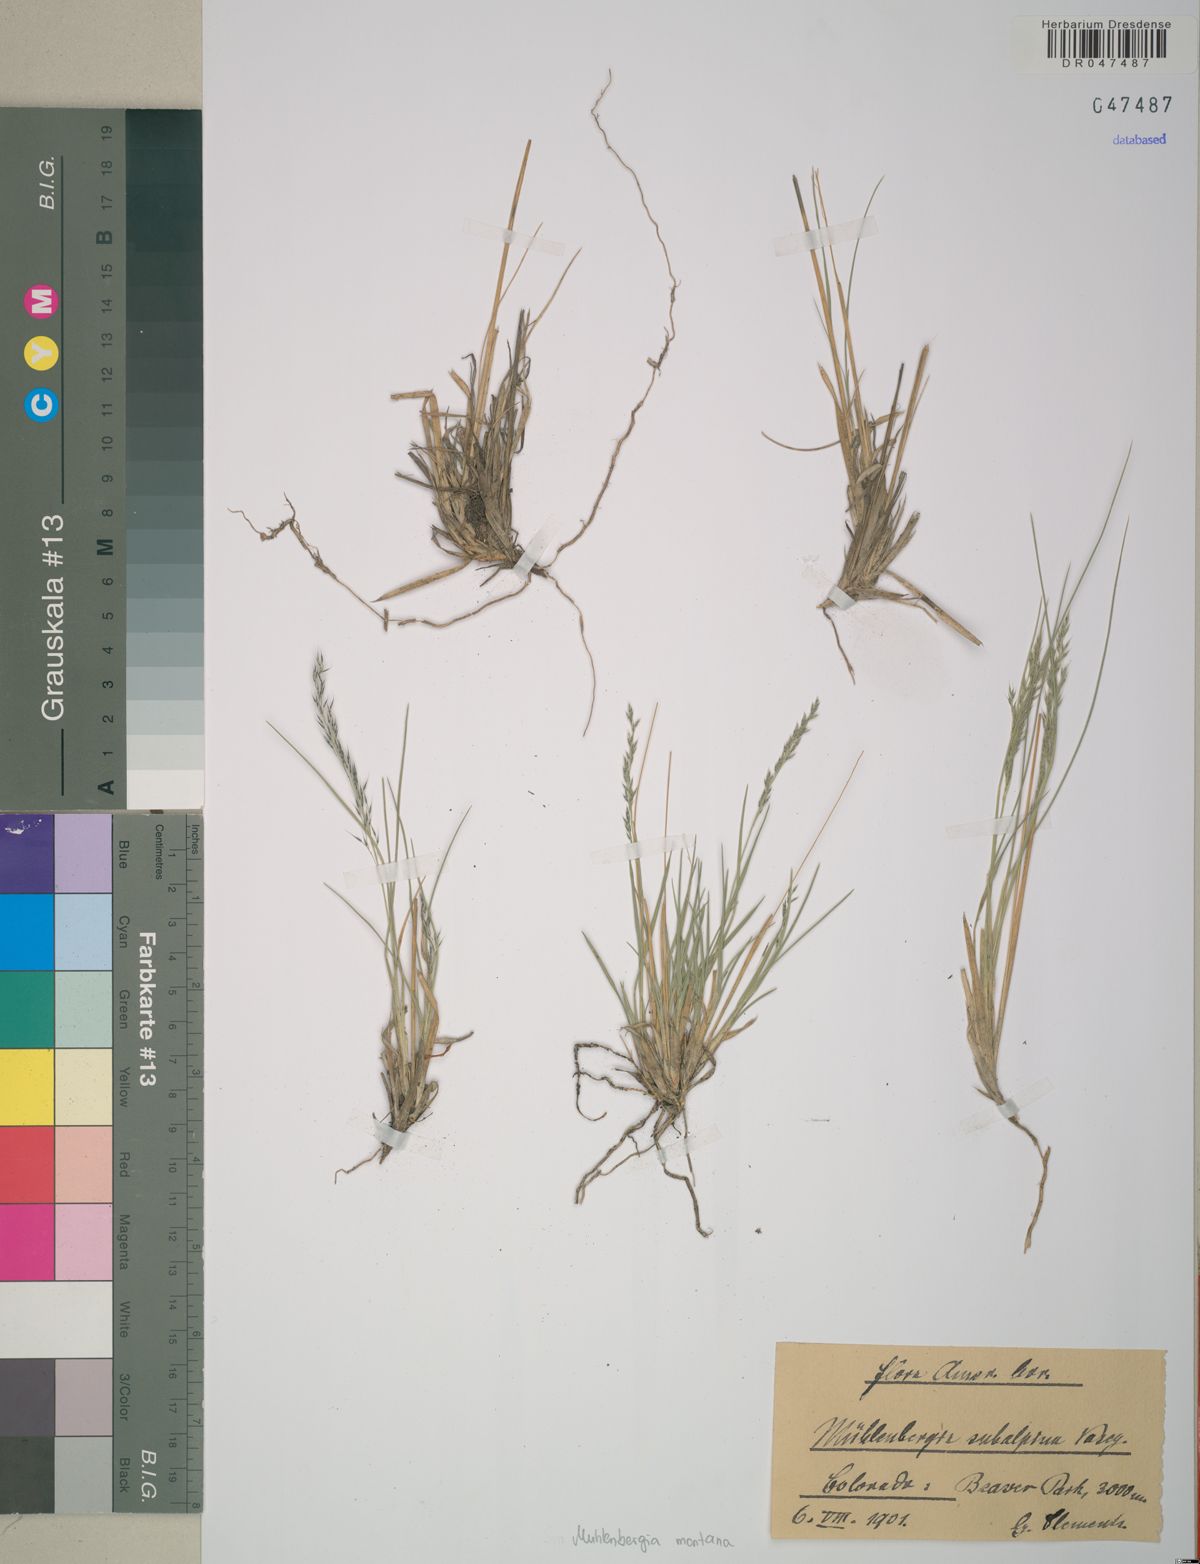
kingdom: Plantae
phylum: Tracheophyta
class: Liliopsida
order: Poales
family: Poaceae
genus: Muhlenbergia
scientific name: Muhlenbergia montana
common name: Mountain muhly
